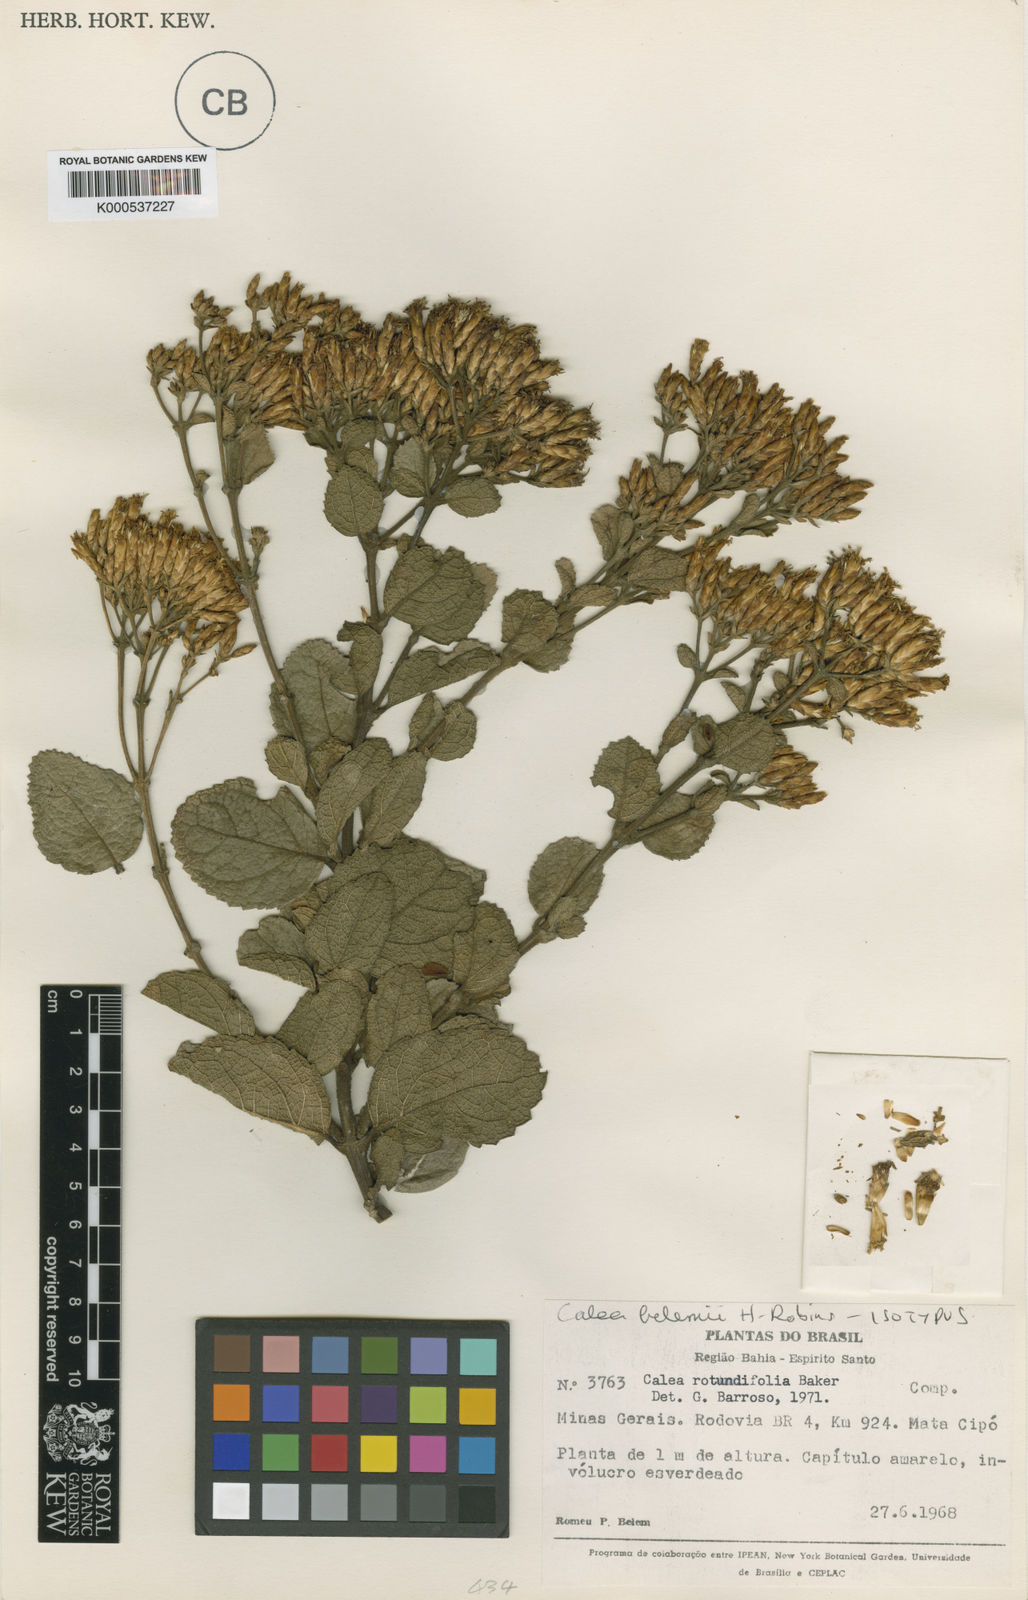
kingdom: Plantae
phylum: Tracheophyta
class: Magnoliopsida
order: Asterales
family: Asteraceae
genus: Calea
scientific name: Calea
